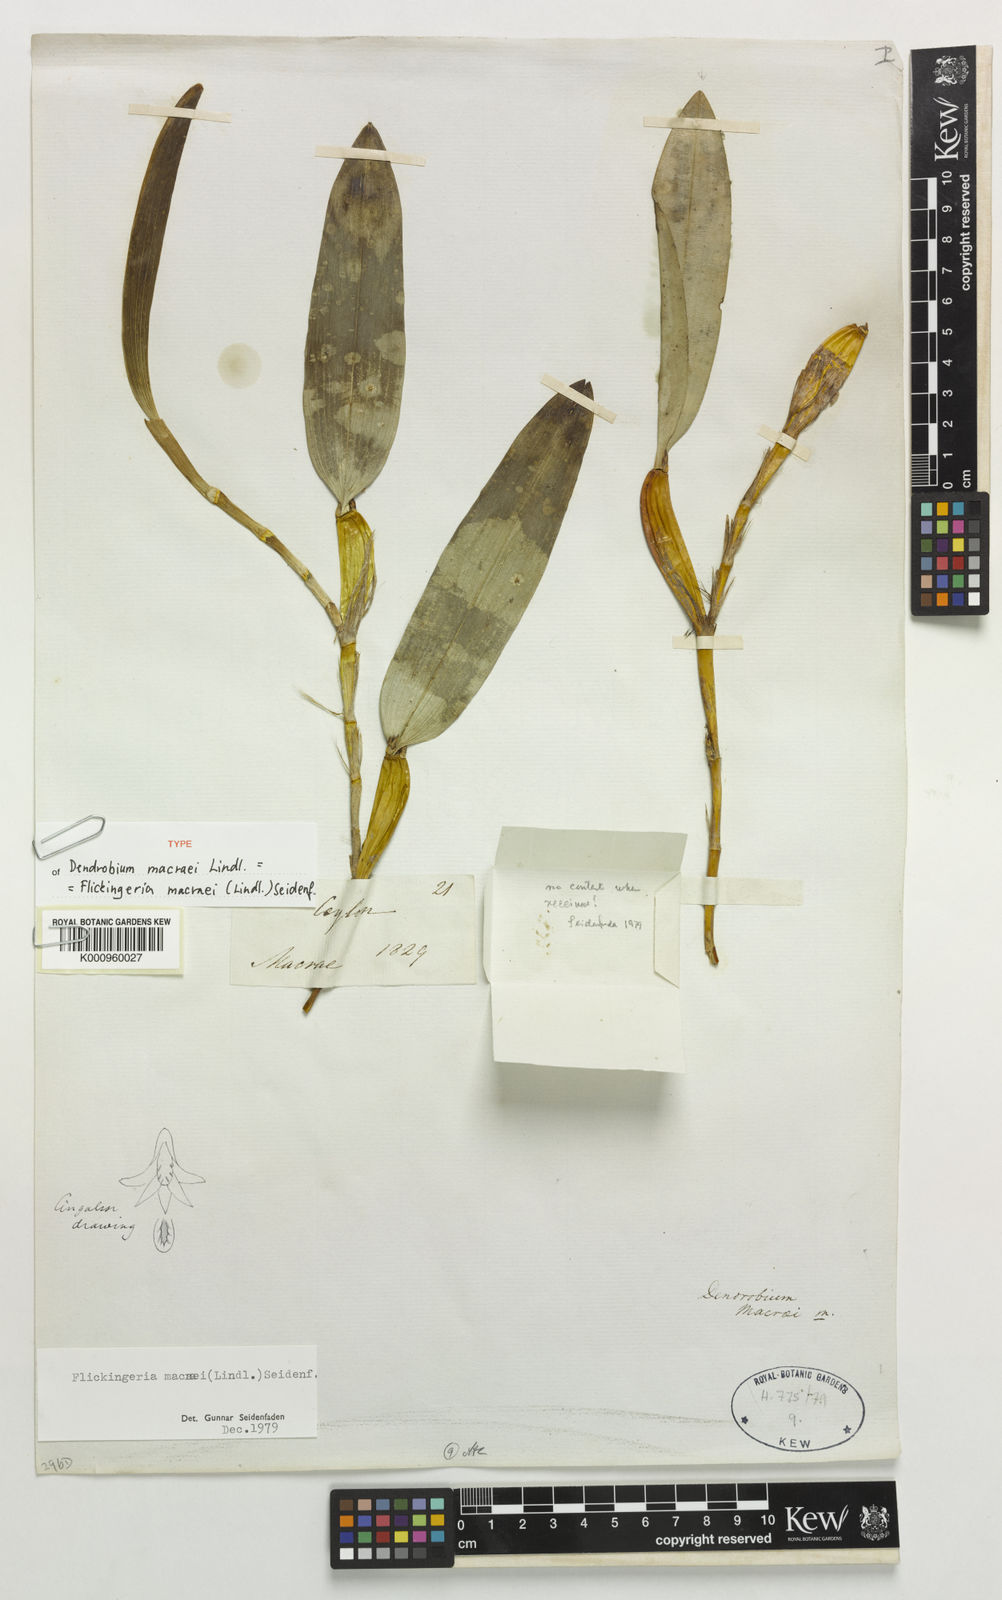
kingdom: Plantae
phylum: Tracheophyta
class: Liliopsida
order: Asparagales
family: Orchidaceae
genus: Dendrobium
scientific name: Dendrobium macraei
